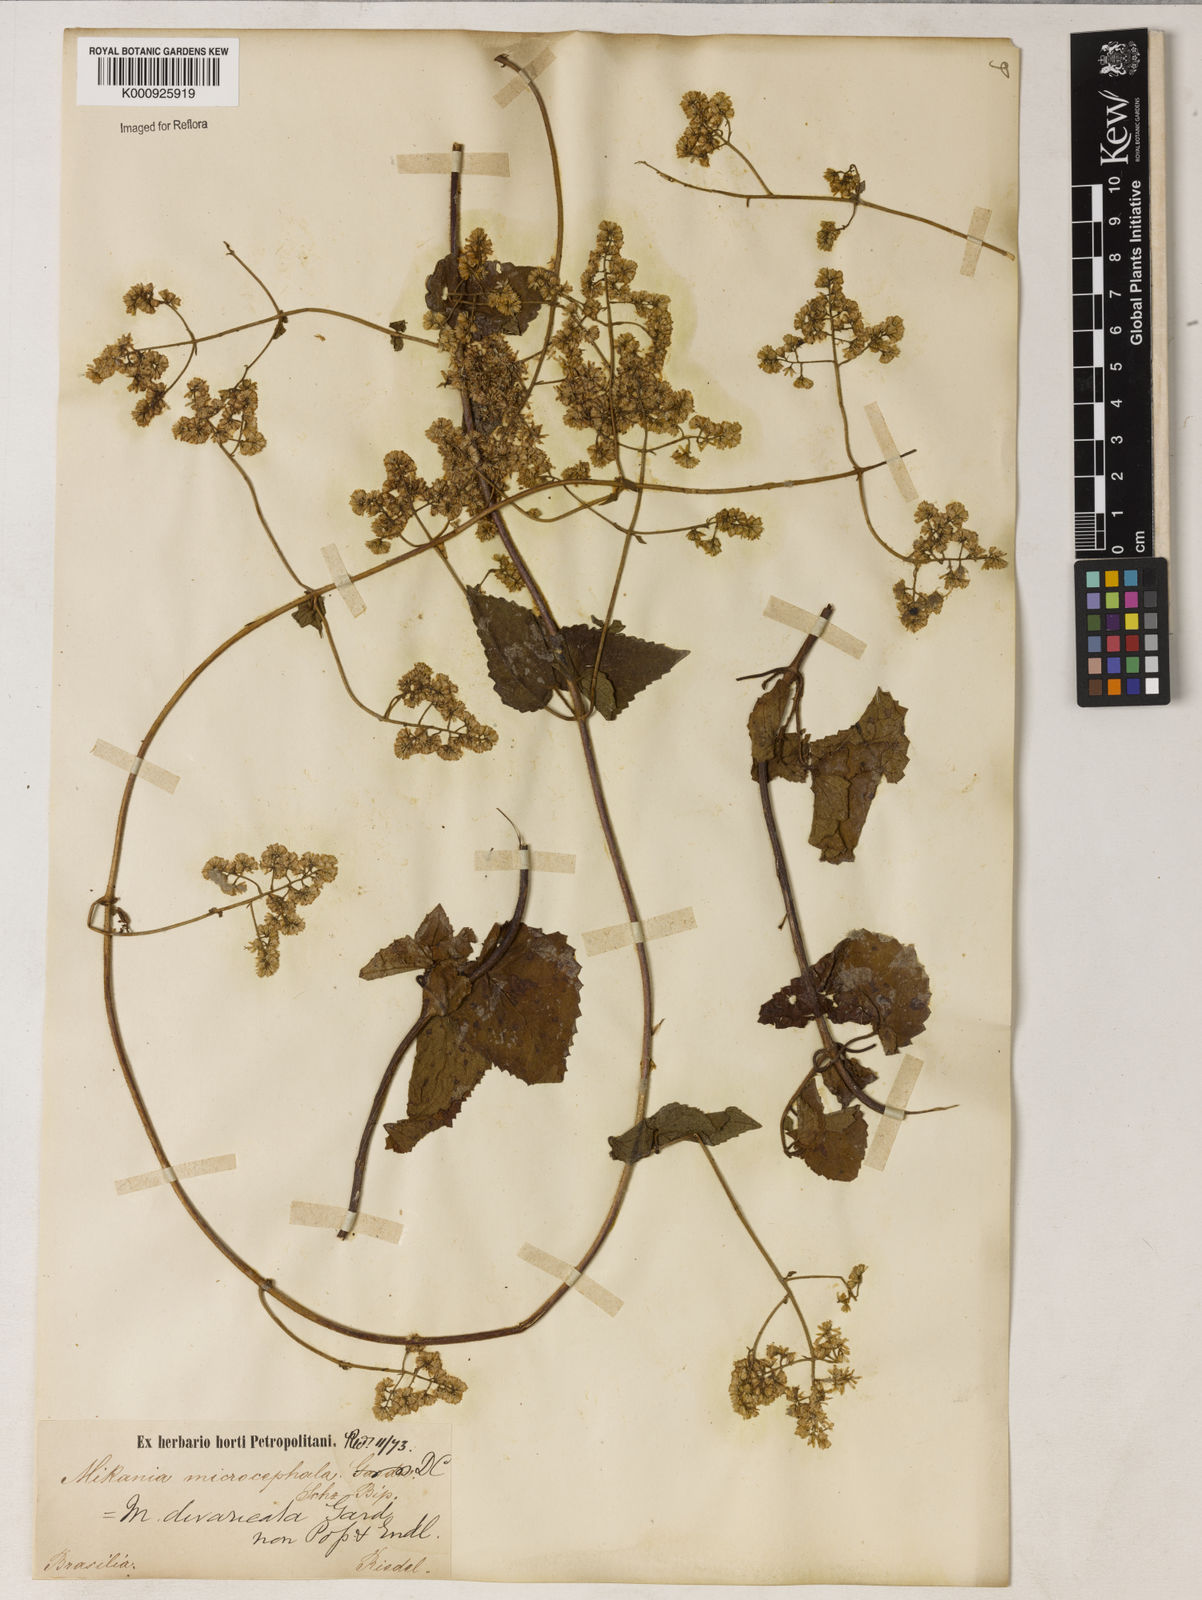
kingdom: Plantae
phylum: Tracheophyta
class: Magnoliopsida
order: Asterales
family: Asteraceae
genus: Mikania
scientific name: Mikania parviflora
